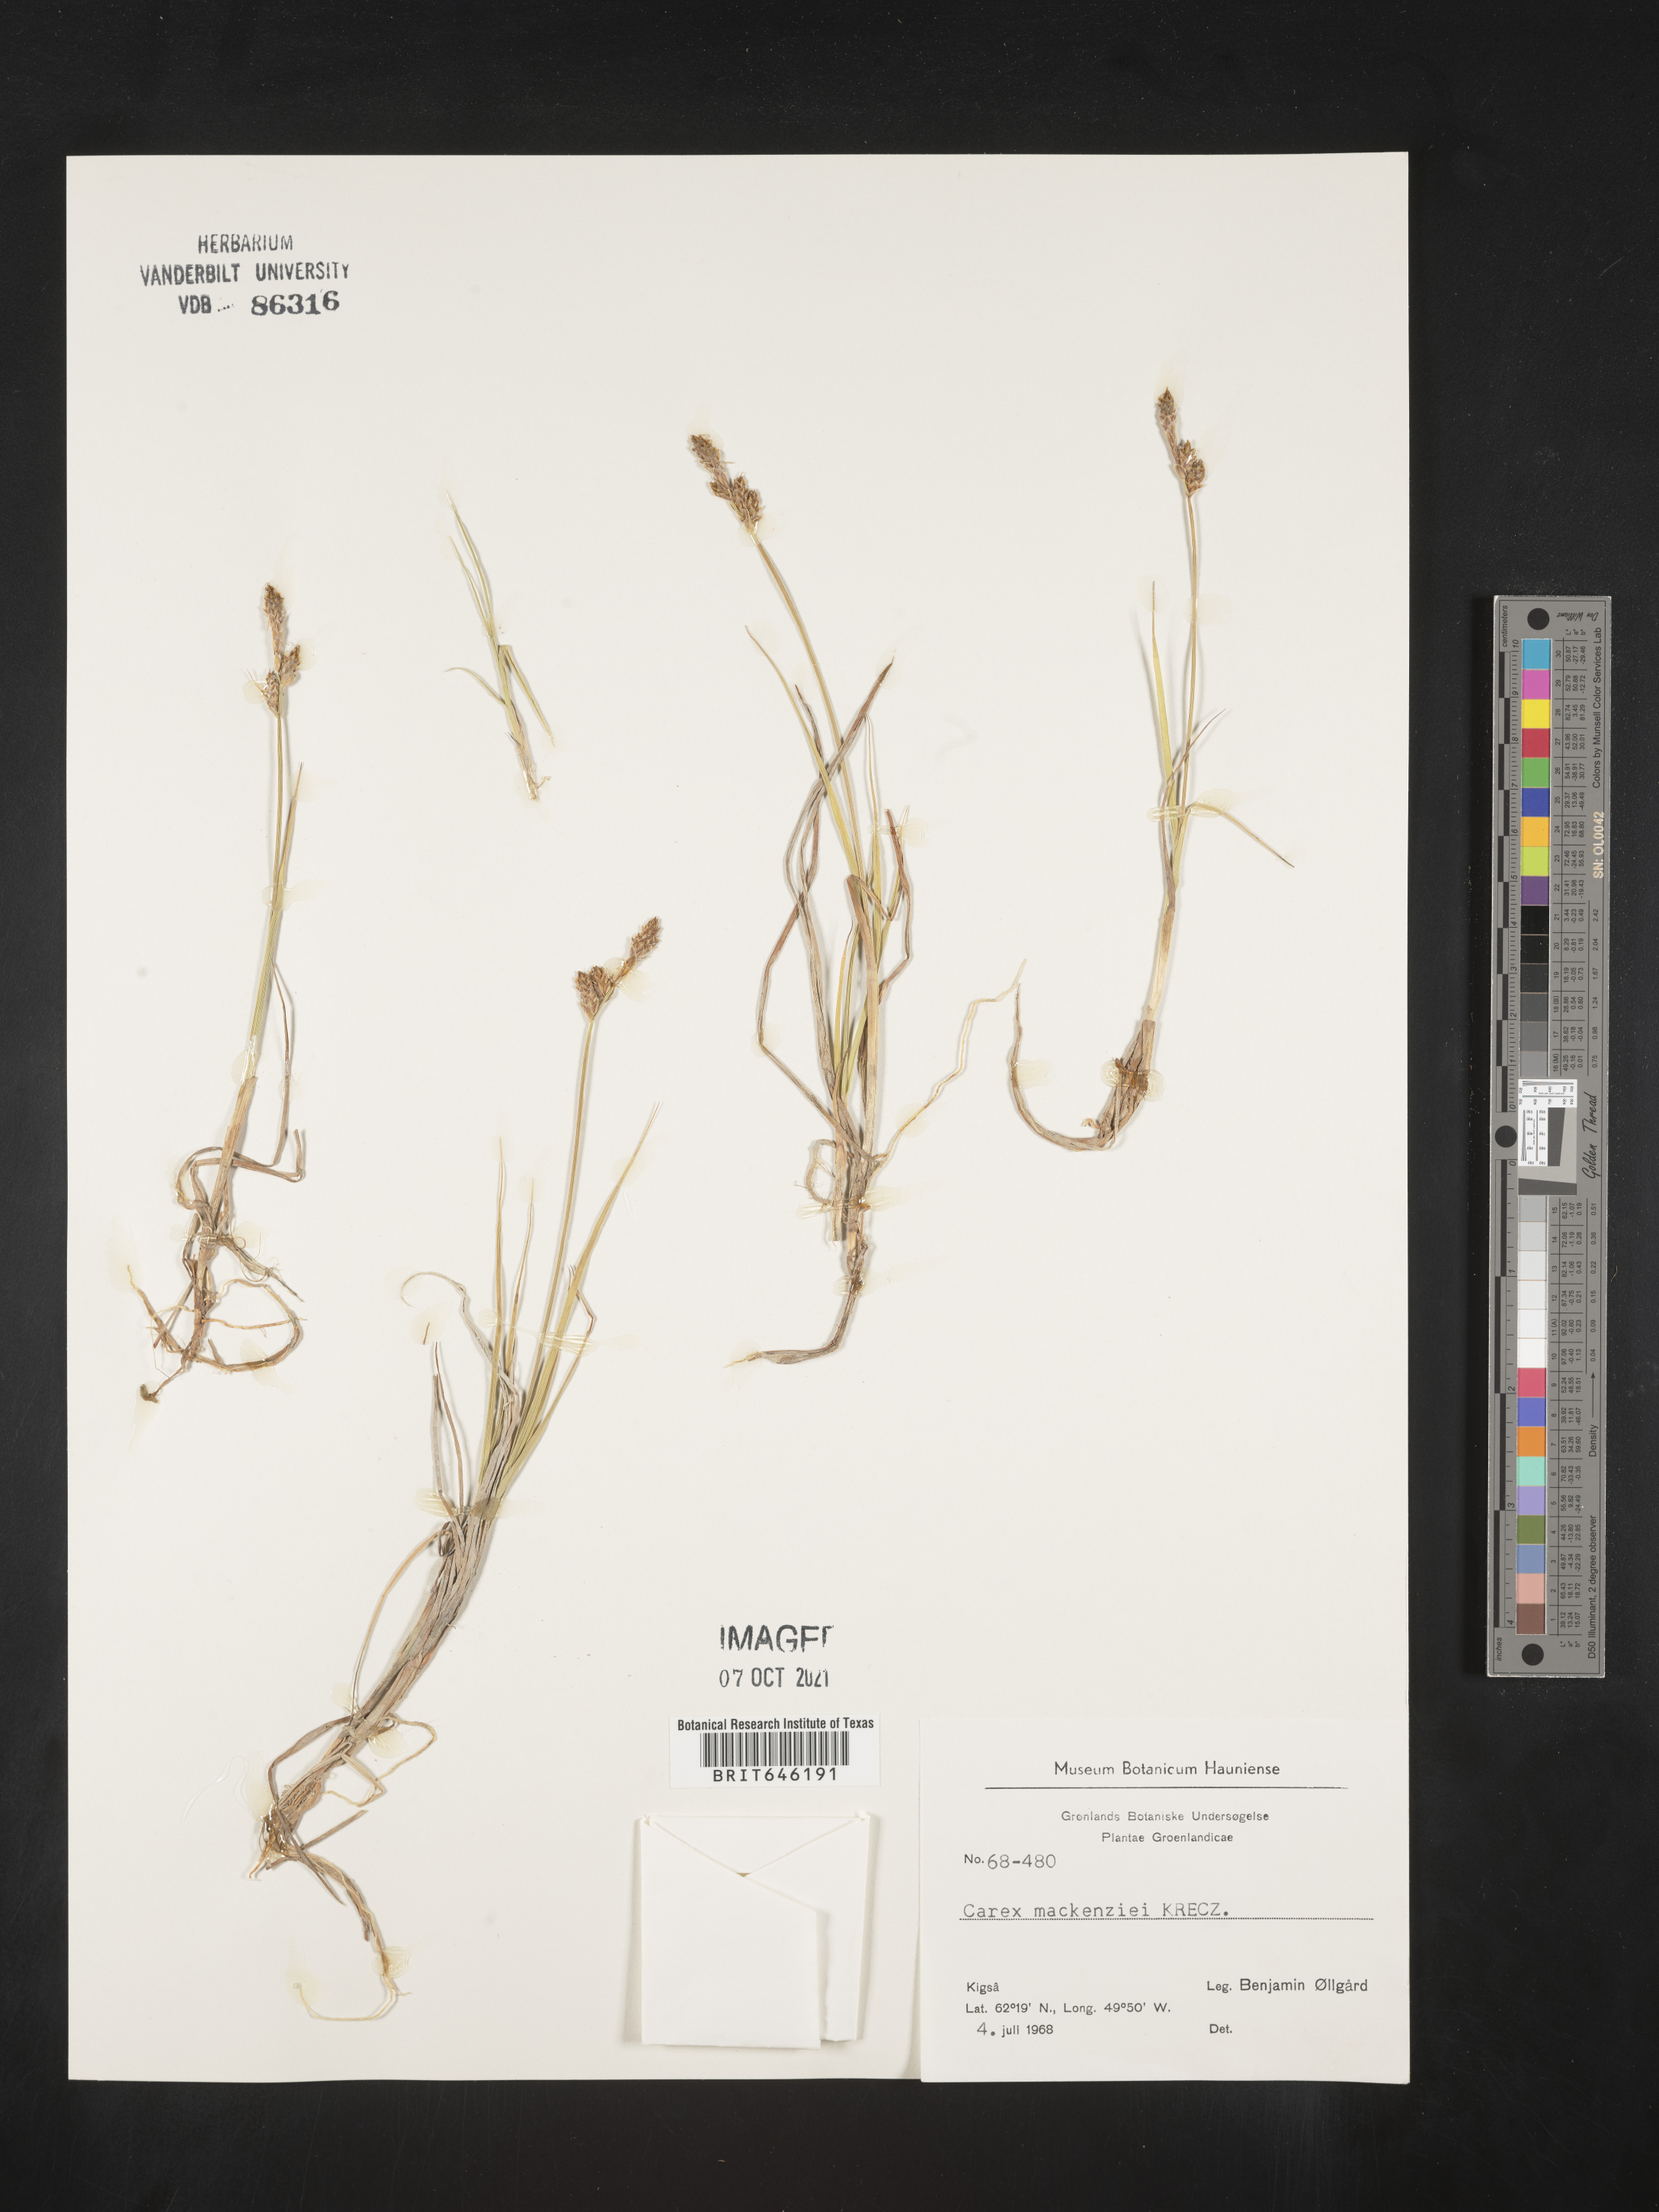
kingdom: Plantae
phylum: Tracheophyta
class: Liliopsida
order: Poales
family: Cyperaceae
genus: Carex
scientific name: Carex mackenziei
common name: Mackenzie's sedge
